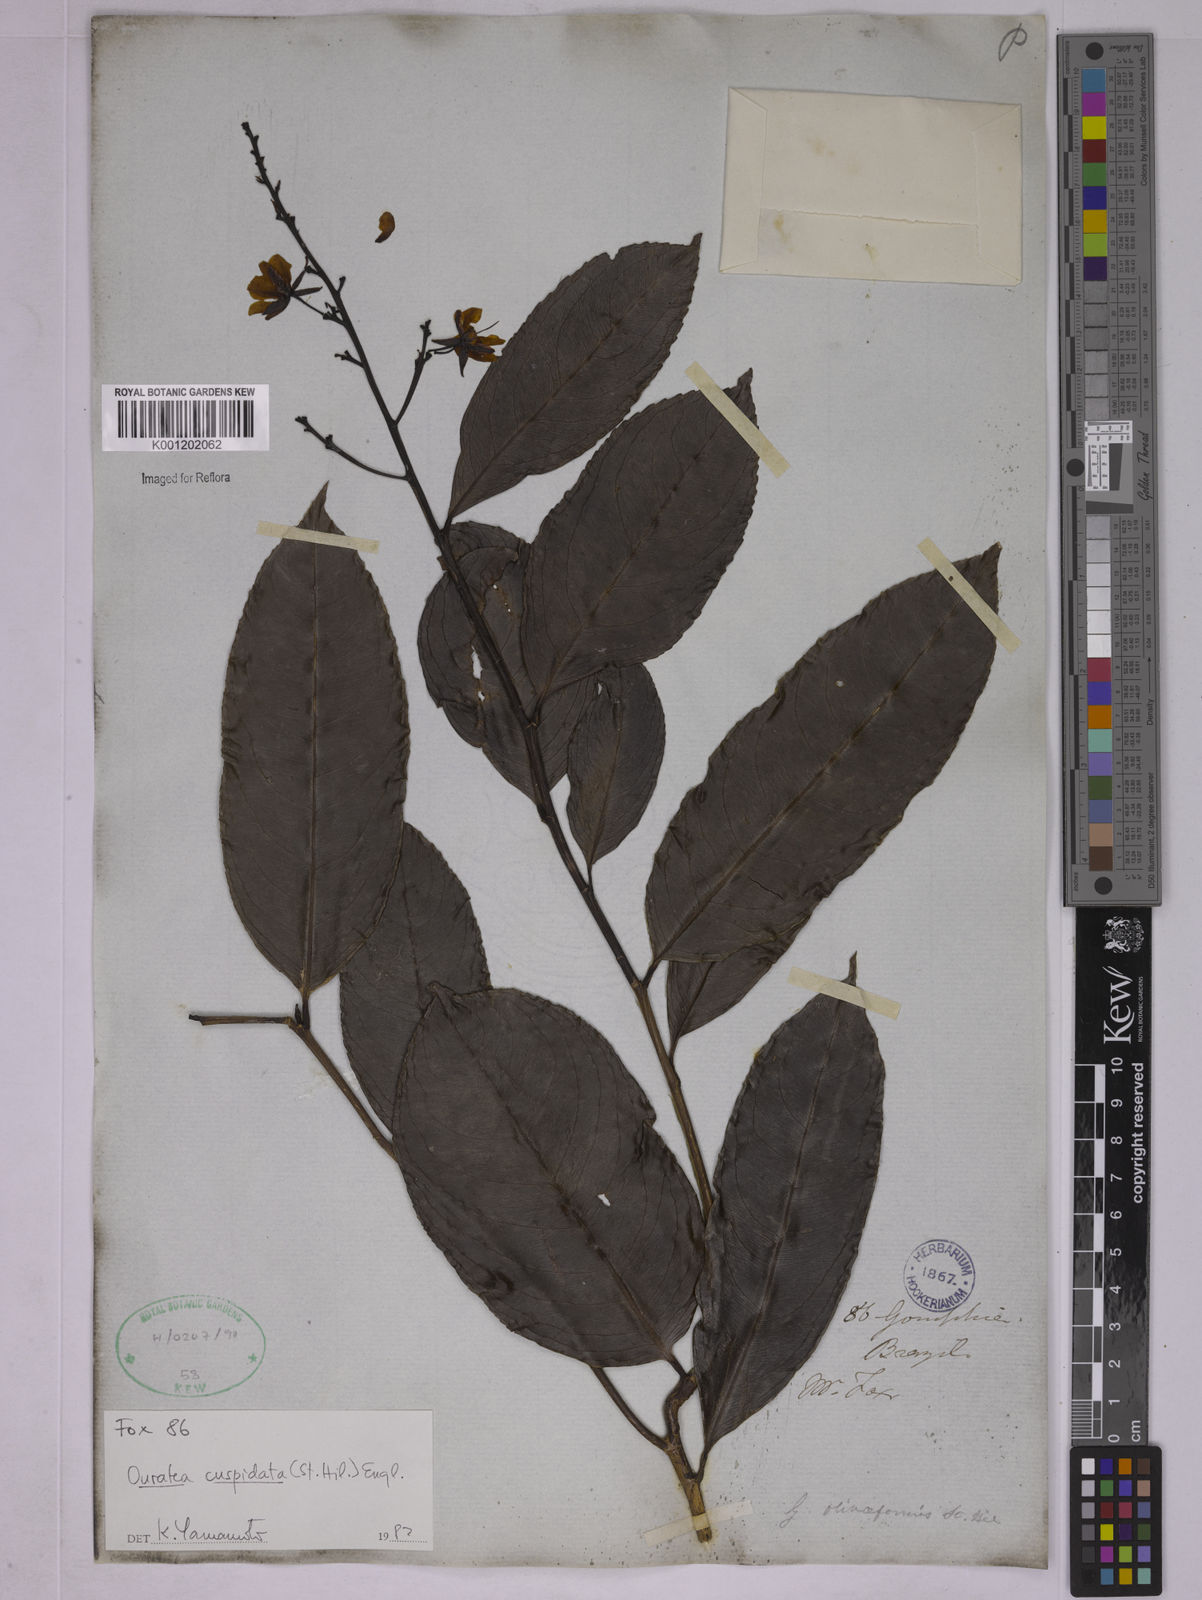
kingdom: Plantae
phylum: Tracheophyta
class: Magnoliopsida
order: Malpighiales
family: Ochnaceae
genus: Ouratea
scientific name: Ouratea cuspidata
